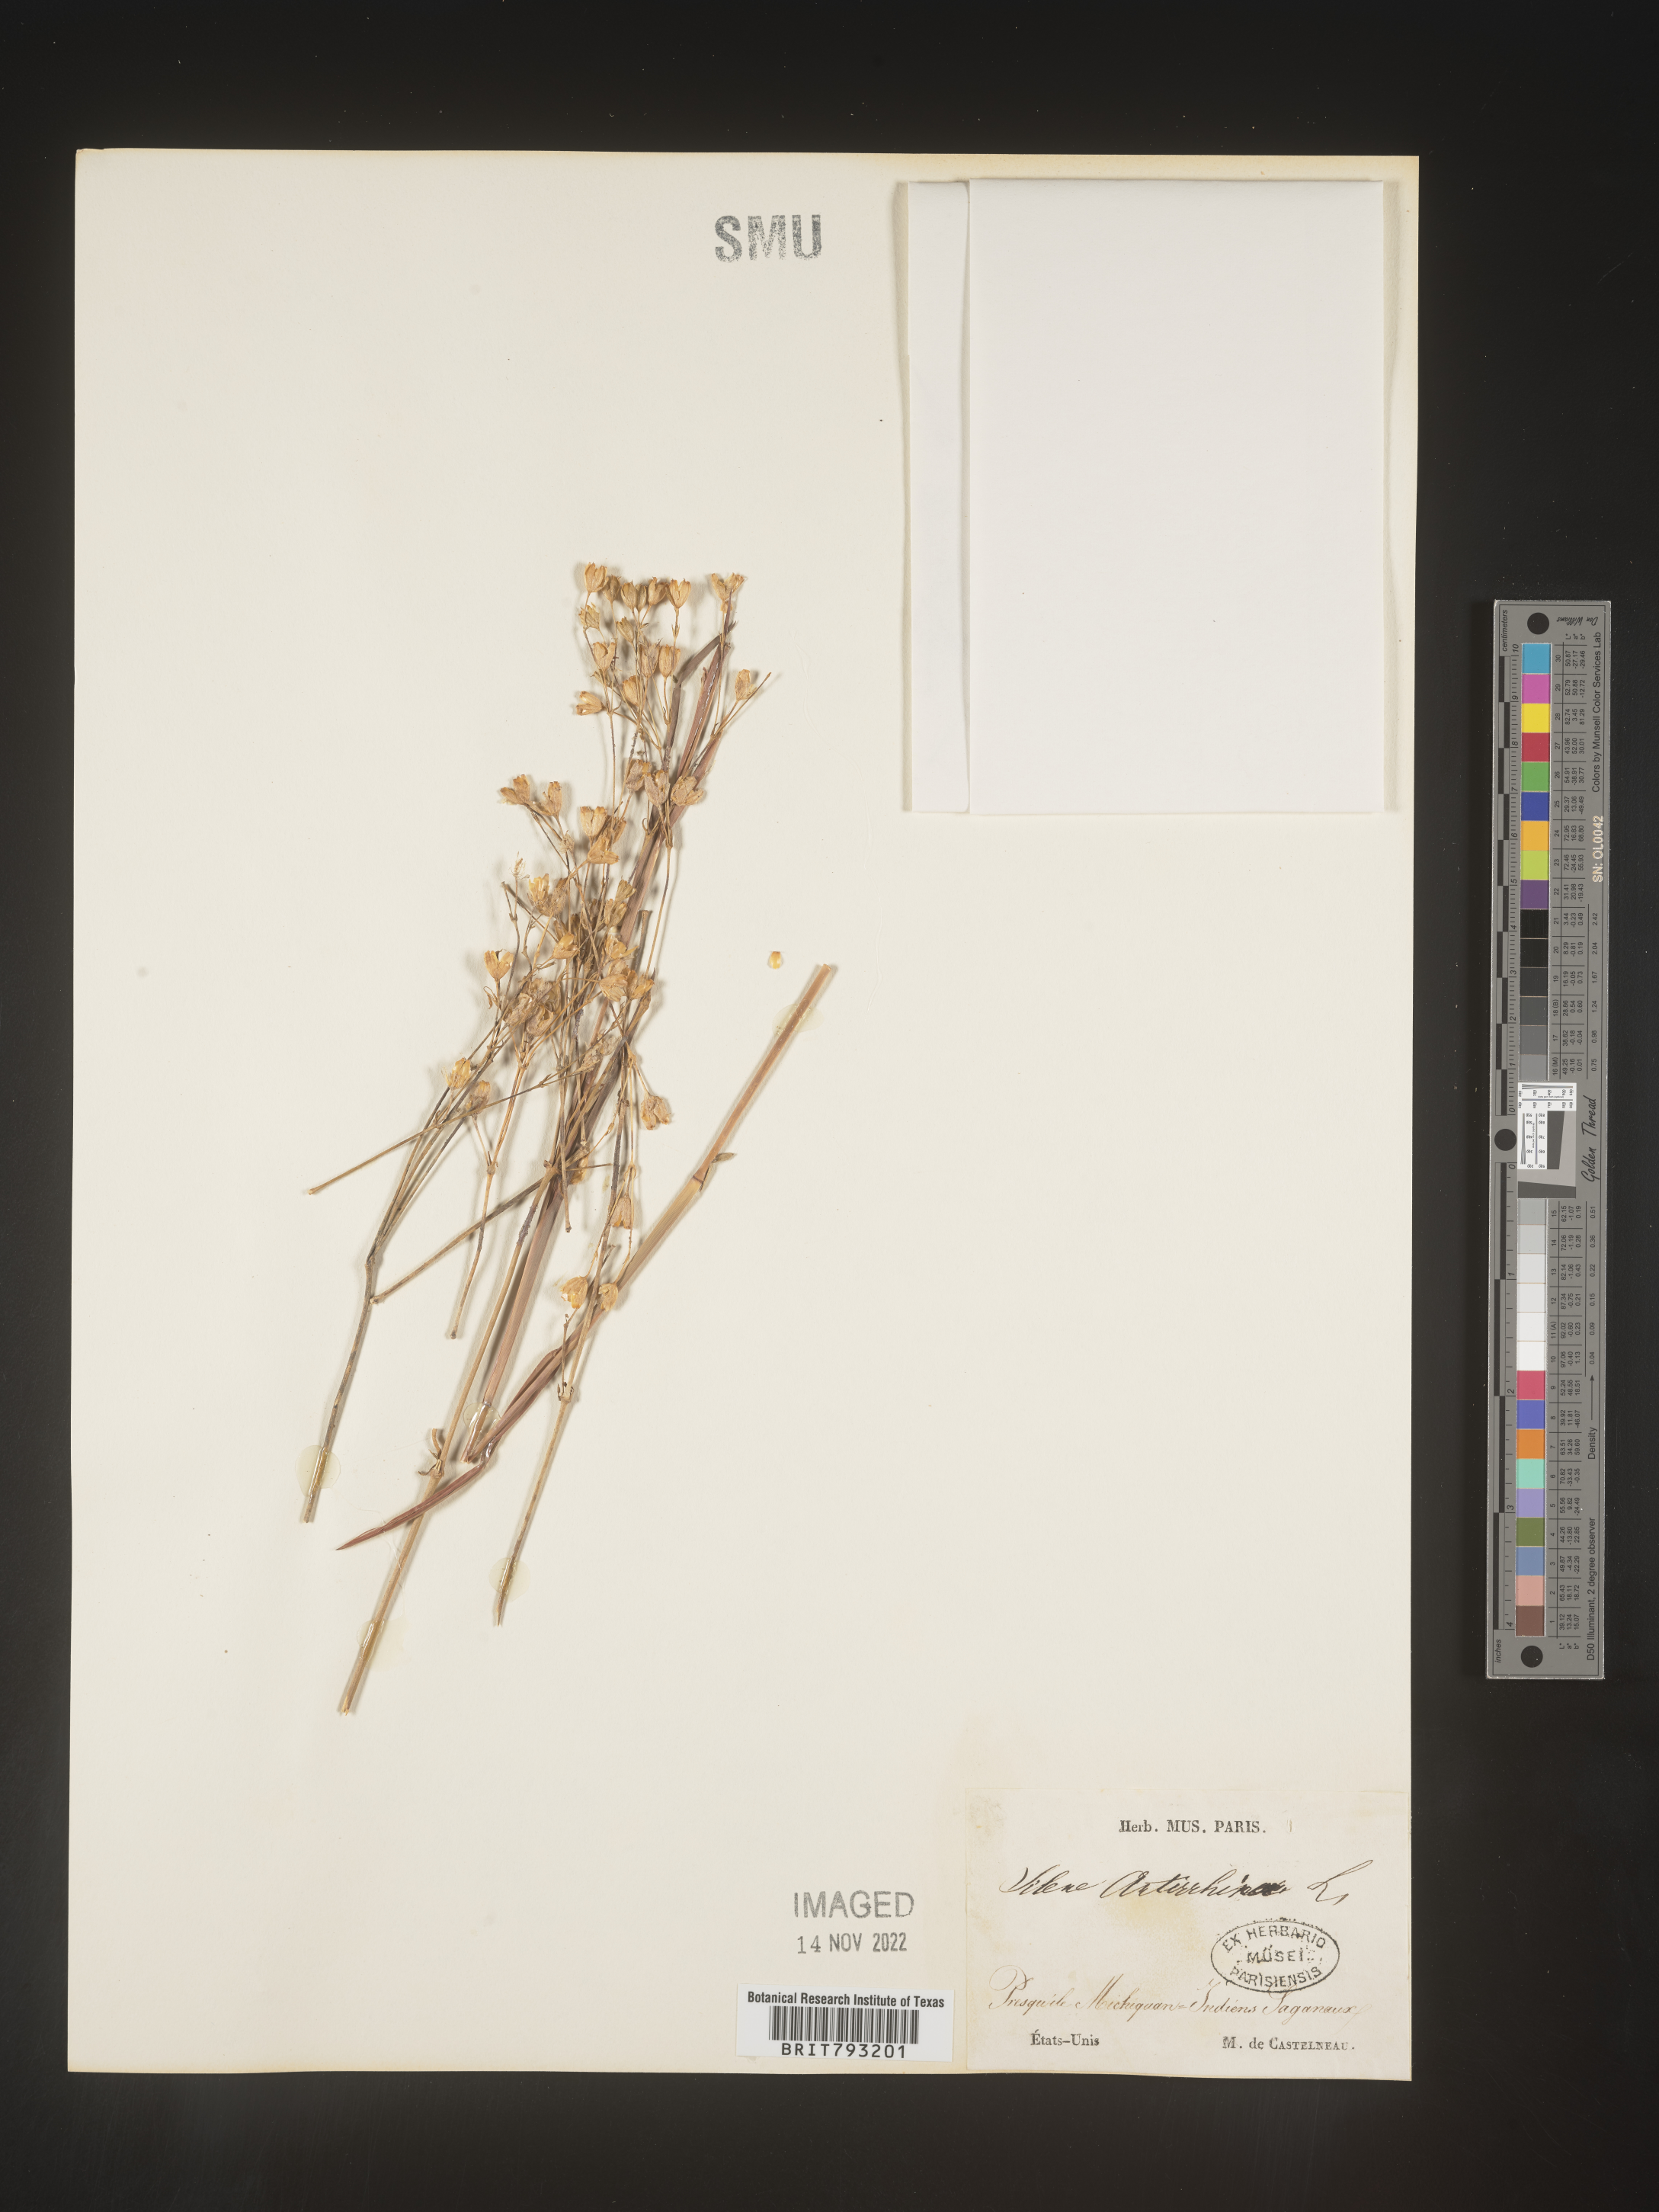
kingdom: Plantae
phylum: Tracheophyta
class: Magnoliopsida
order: Caryophyllales
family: Caryophyllaceae
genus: Silene
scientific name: Silene antirrhina
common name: Sleepy catchfly
